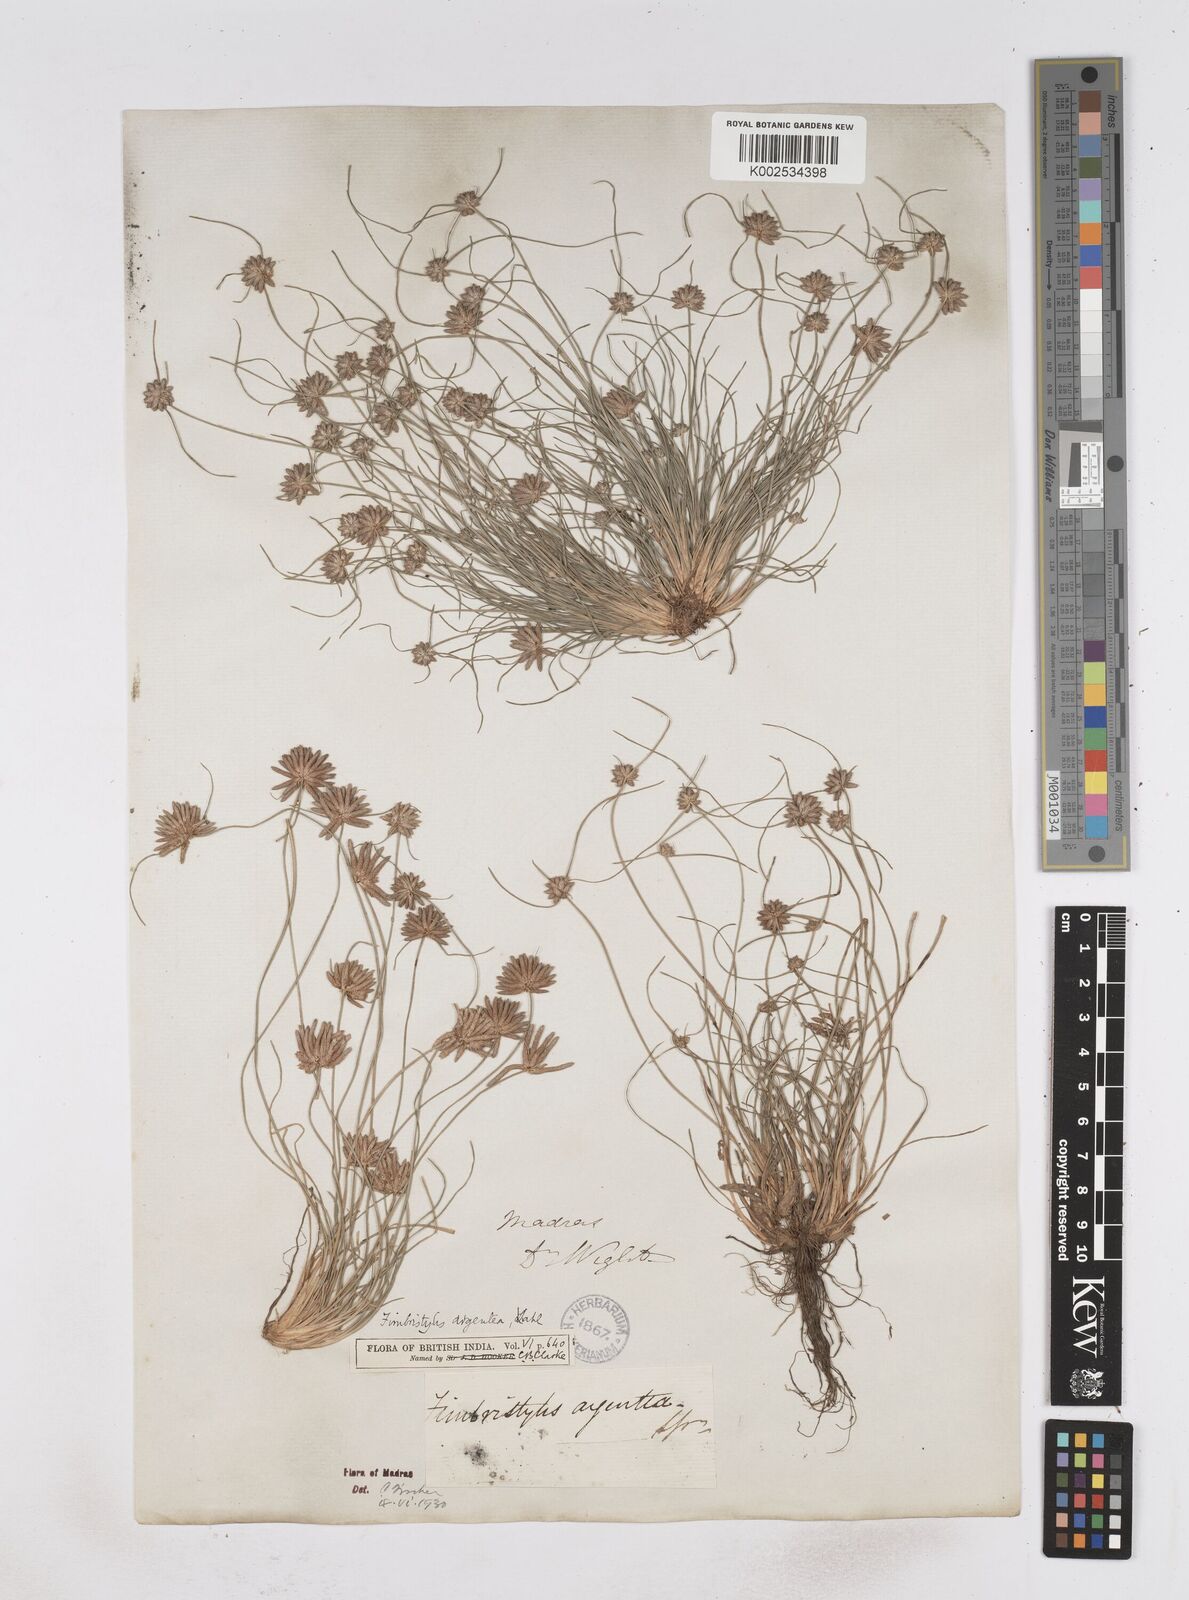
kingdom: Plantae
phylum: Tracheophyta
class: Liliopsida
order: Poales
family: Cyperaceae
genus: Fimbristylis
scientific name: Fimbristylis argentea
